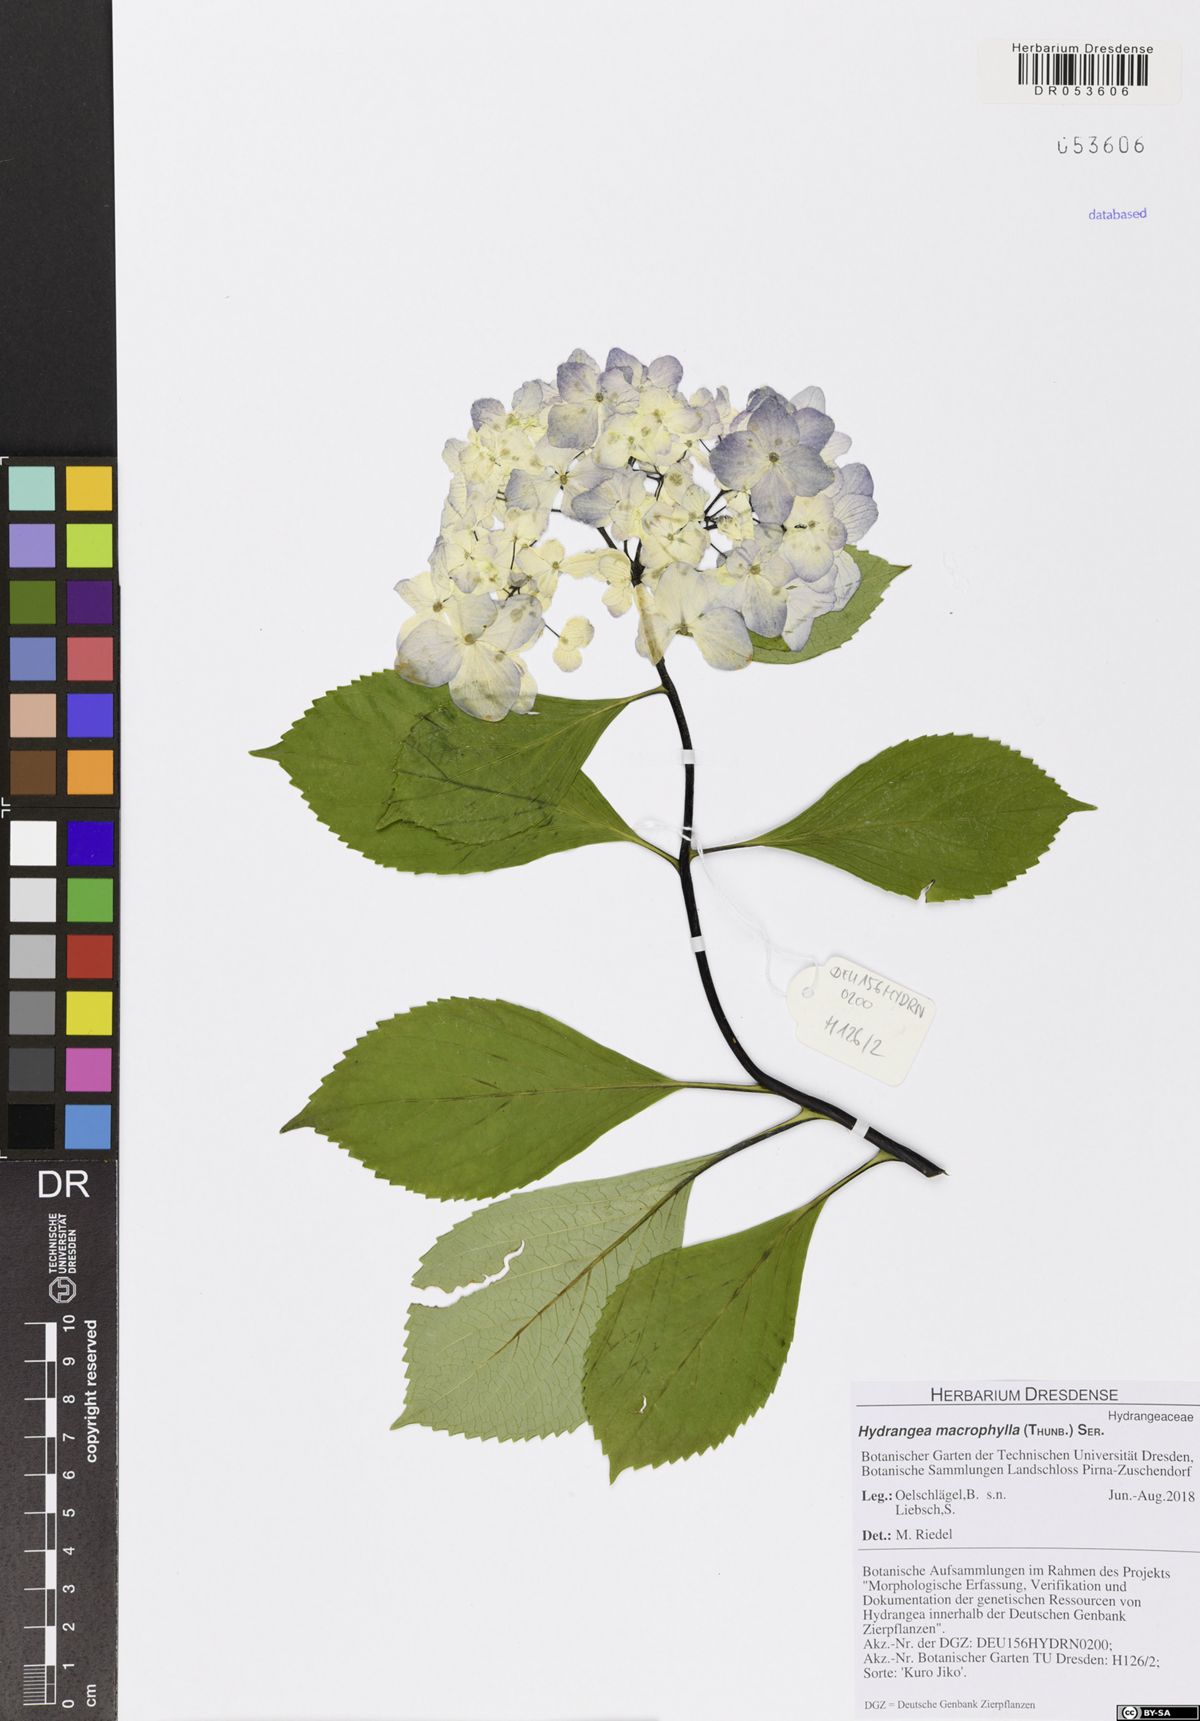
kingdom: Plantae
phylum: Tracheophyta
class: Magnoliopsida
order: Cornales
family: Hydrangeaceae
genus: Hydrangea
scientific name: Hydrangea macrophylla
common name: Hydrangea
